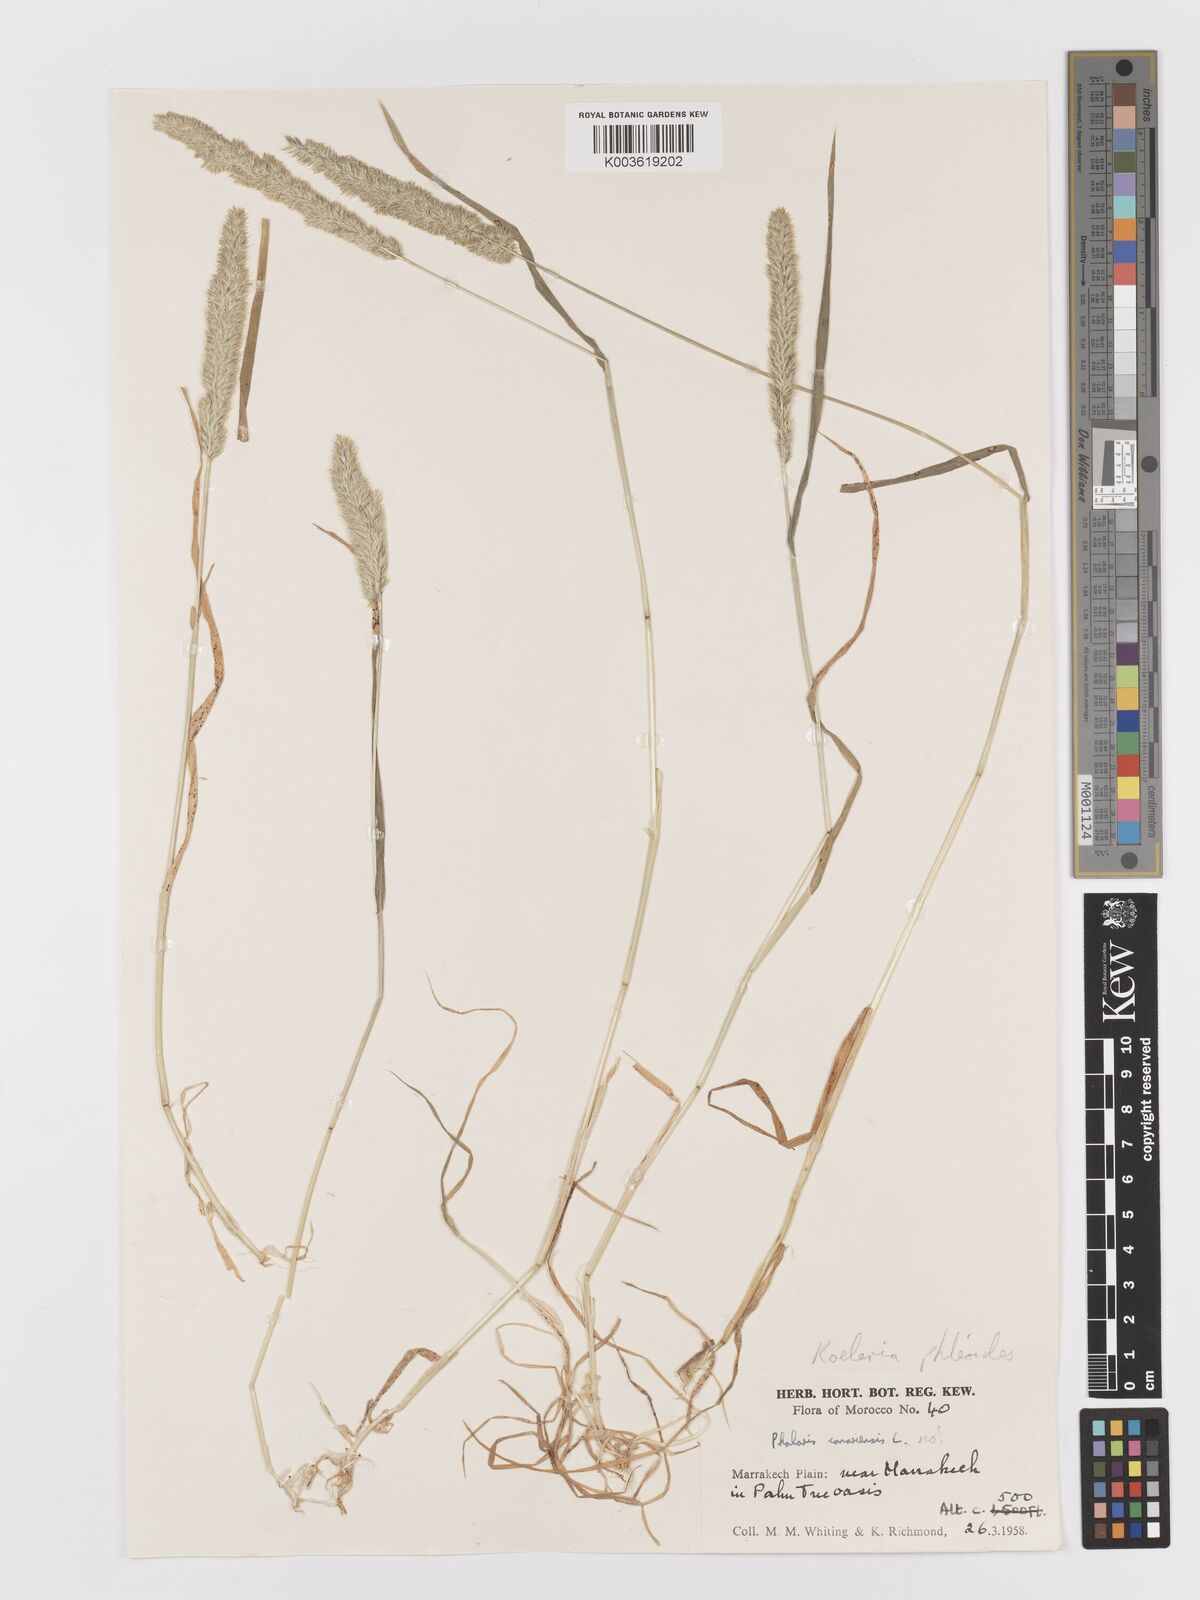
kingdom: Plantae
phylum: Tracheophyta
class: Liliopsida
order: Poales
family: Poaceae
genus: Rostraria
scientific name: Rostraria cristata
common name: Mediterranean hair-grass
